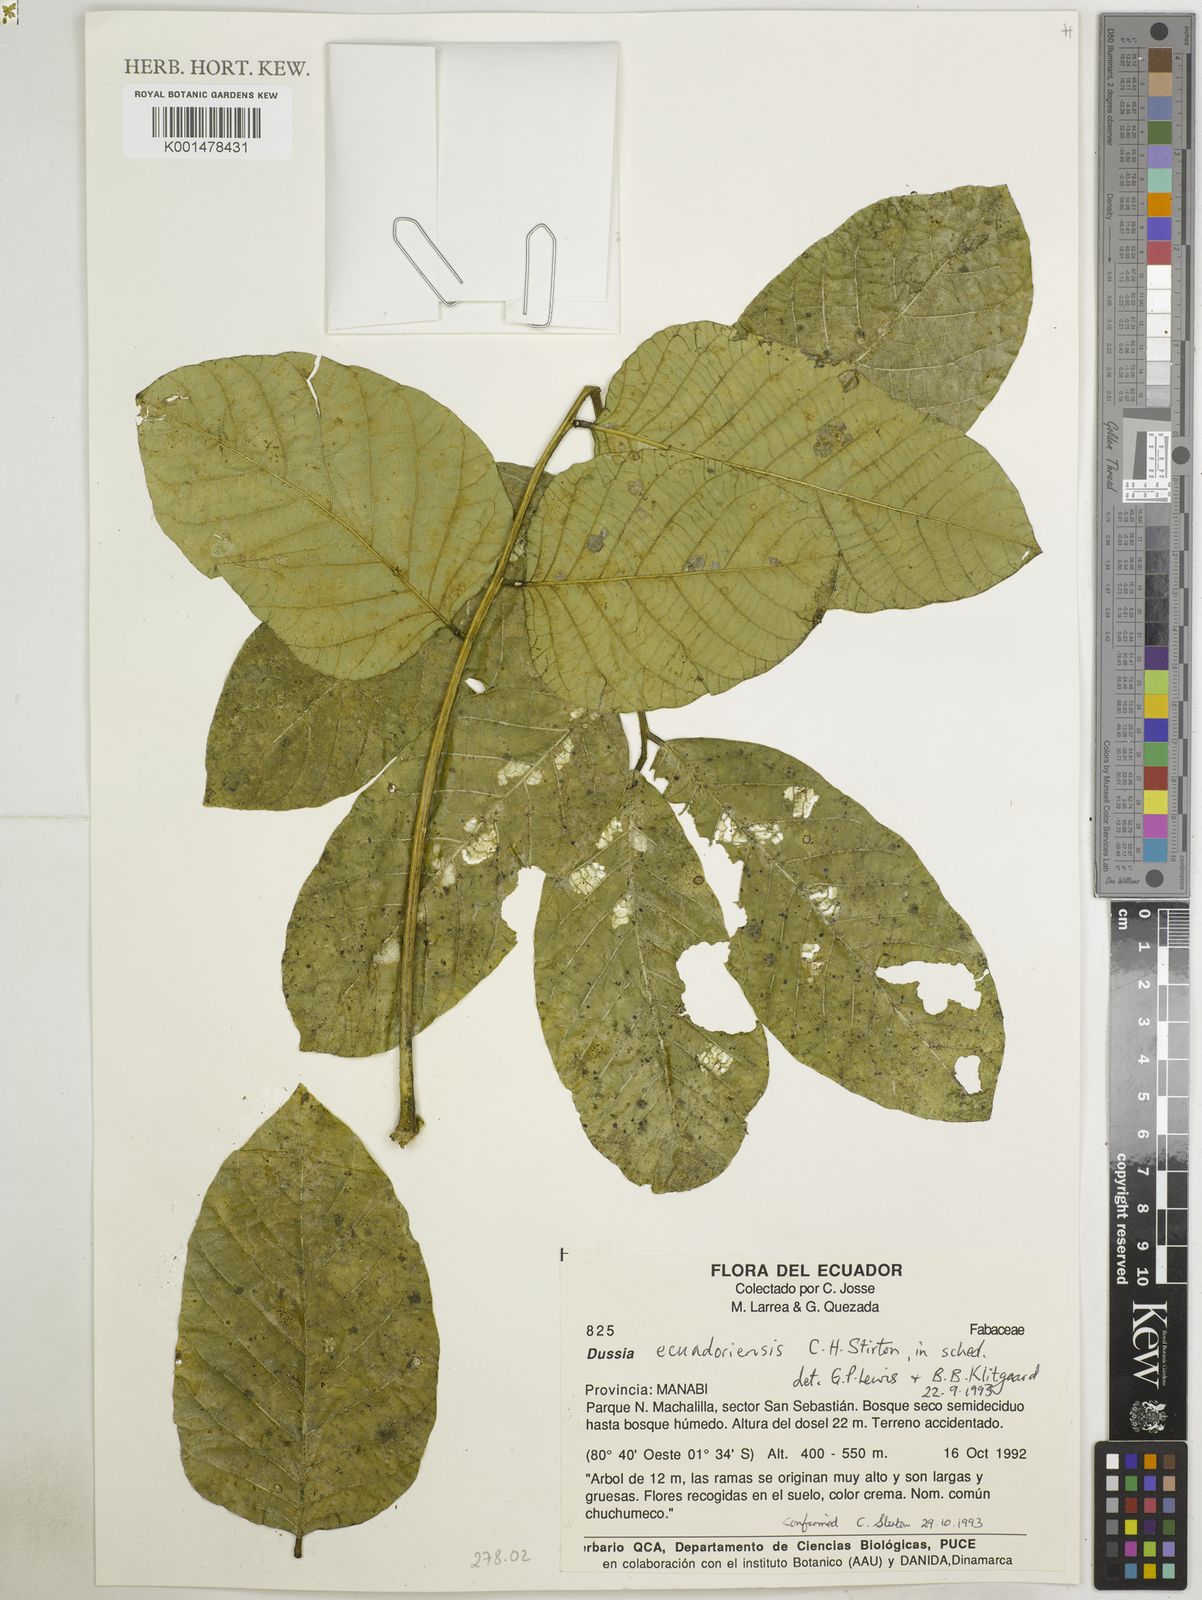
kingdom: Plantae
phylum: Tracheophyta
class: Magnoliopsida
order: Fabales
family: Fabaceae
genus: Dussia
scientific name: Dussia
